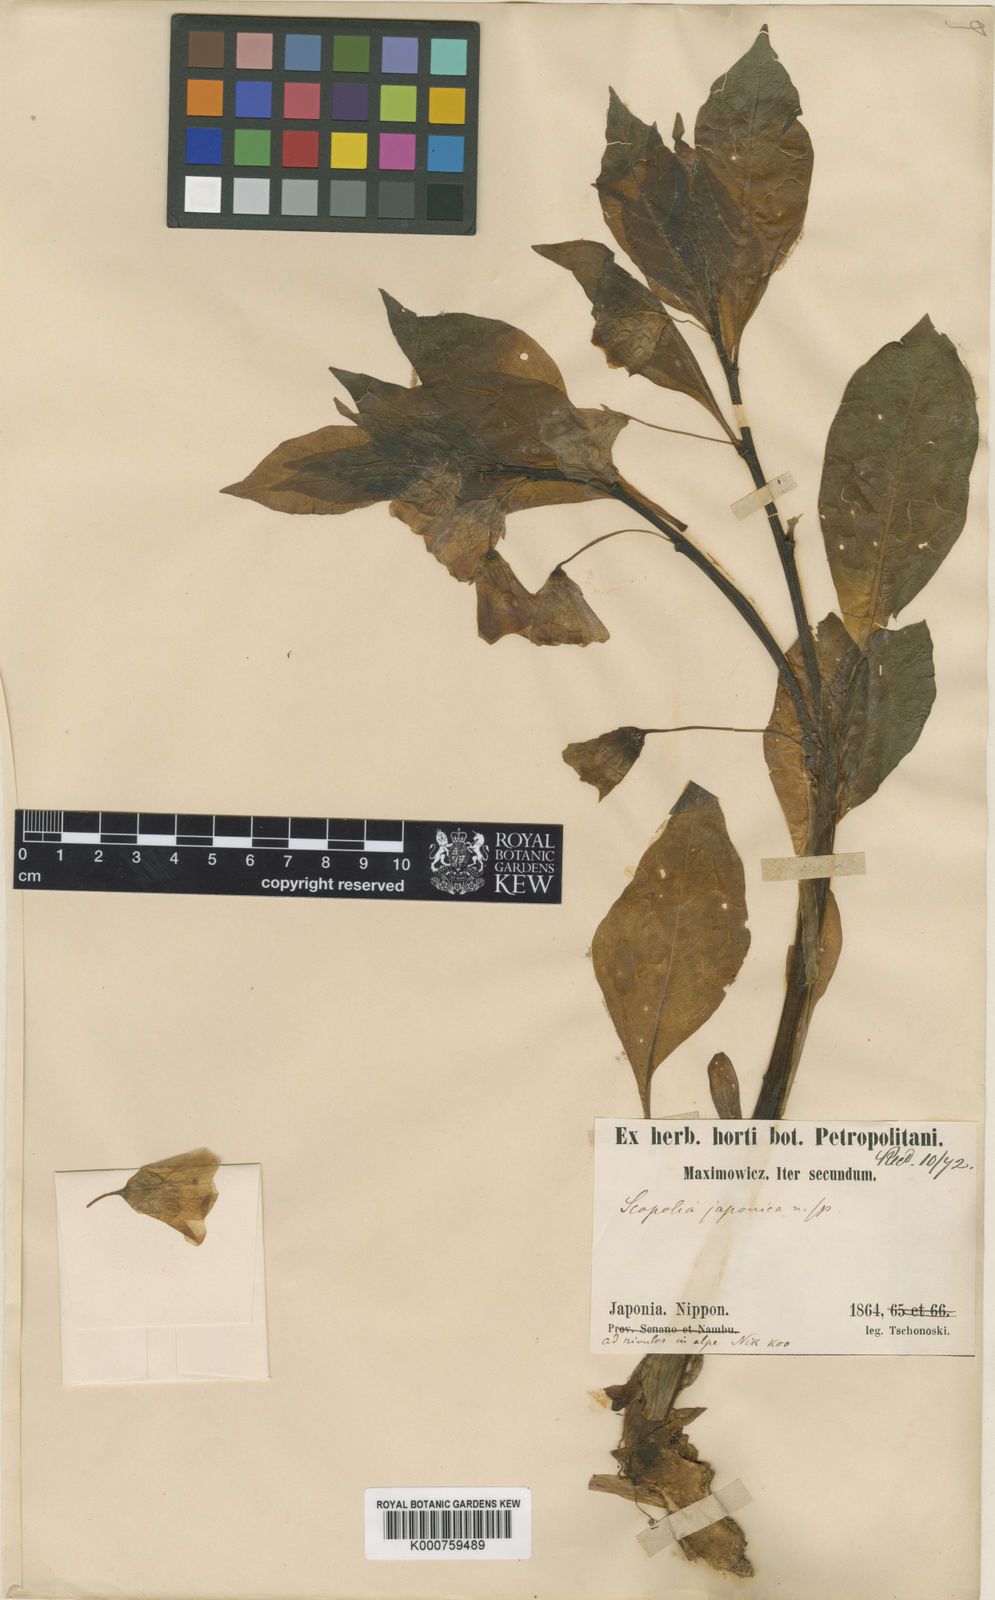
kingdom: Plantae
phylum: Tracheophyta
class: Magnoliopsida
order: Solanales
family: Solanaceae
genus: Scopolia
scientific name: Scopolia japonica
